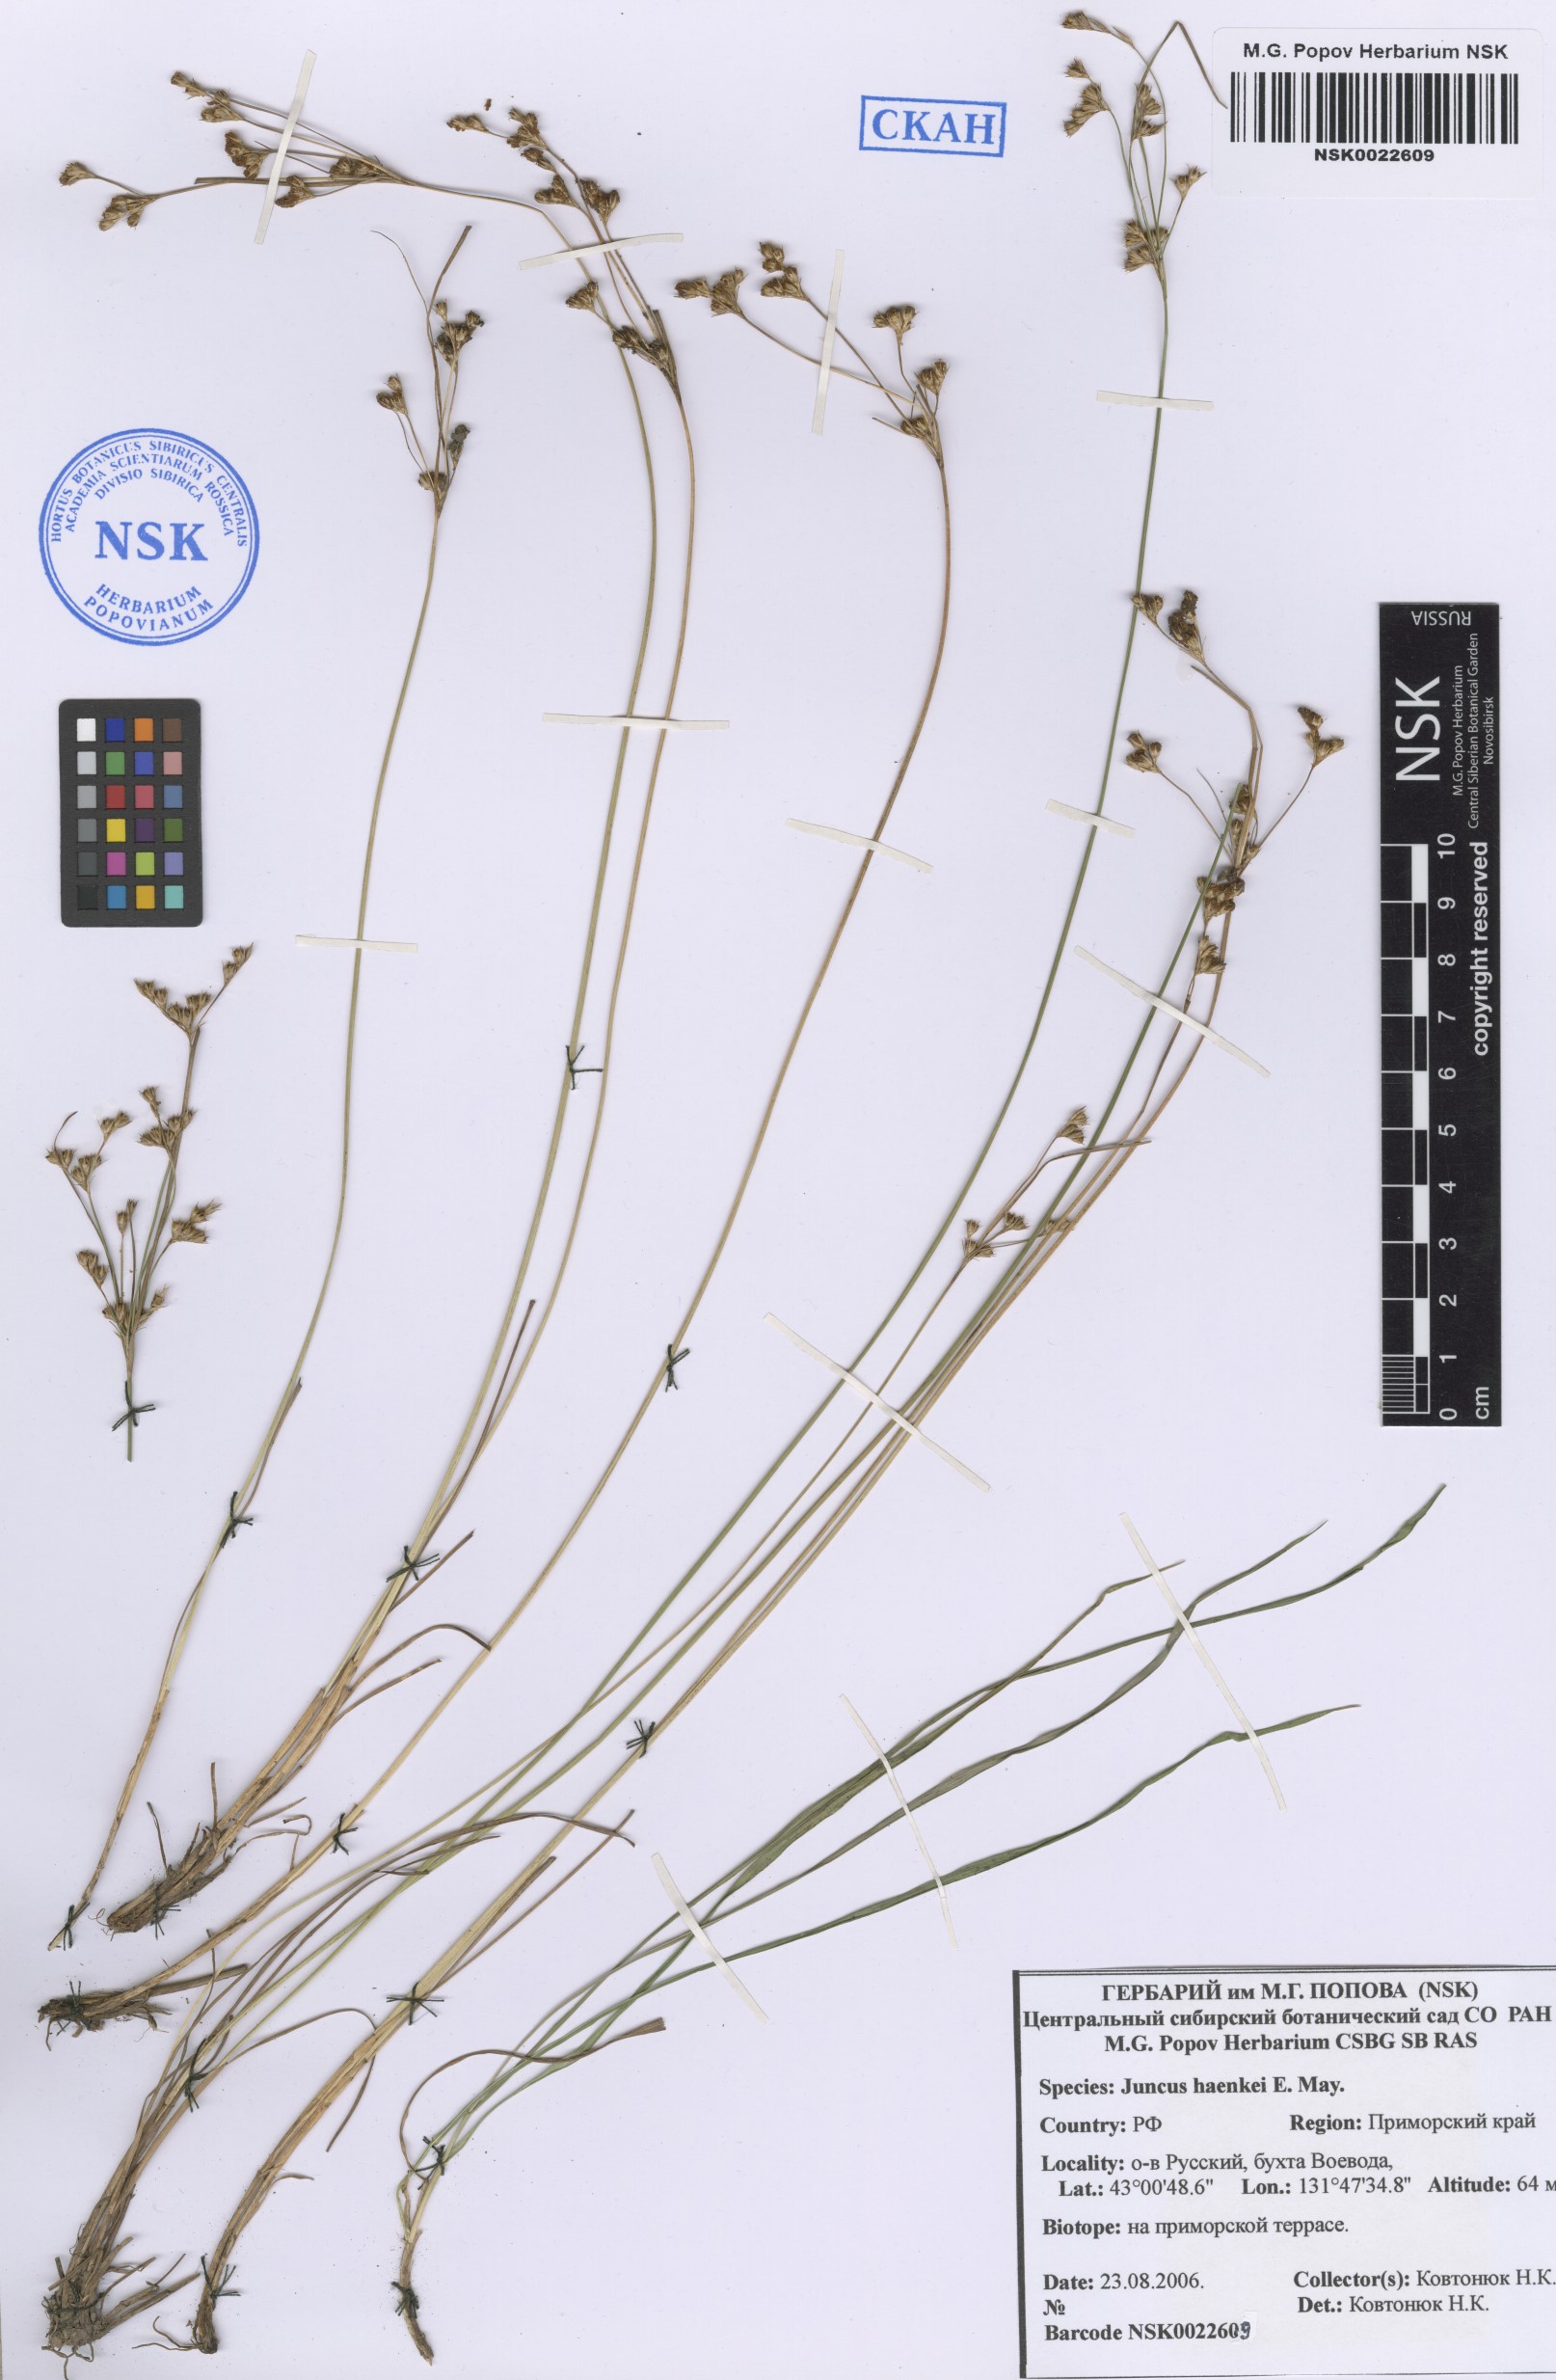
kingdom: Plantae
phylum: Tracheophyta
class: Liliopsida
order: Poales
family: Juncaceae
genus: Juncus
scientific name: Juncus compressus
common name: Round-fruited rush
